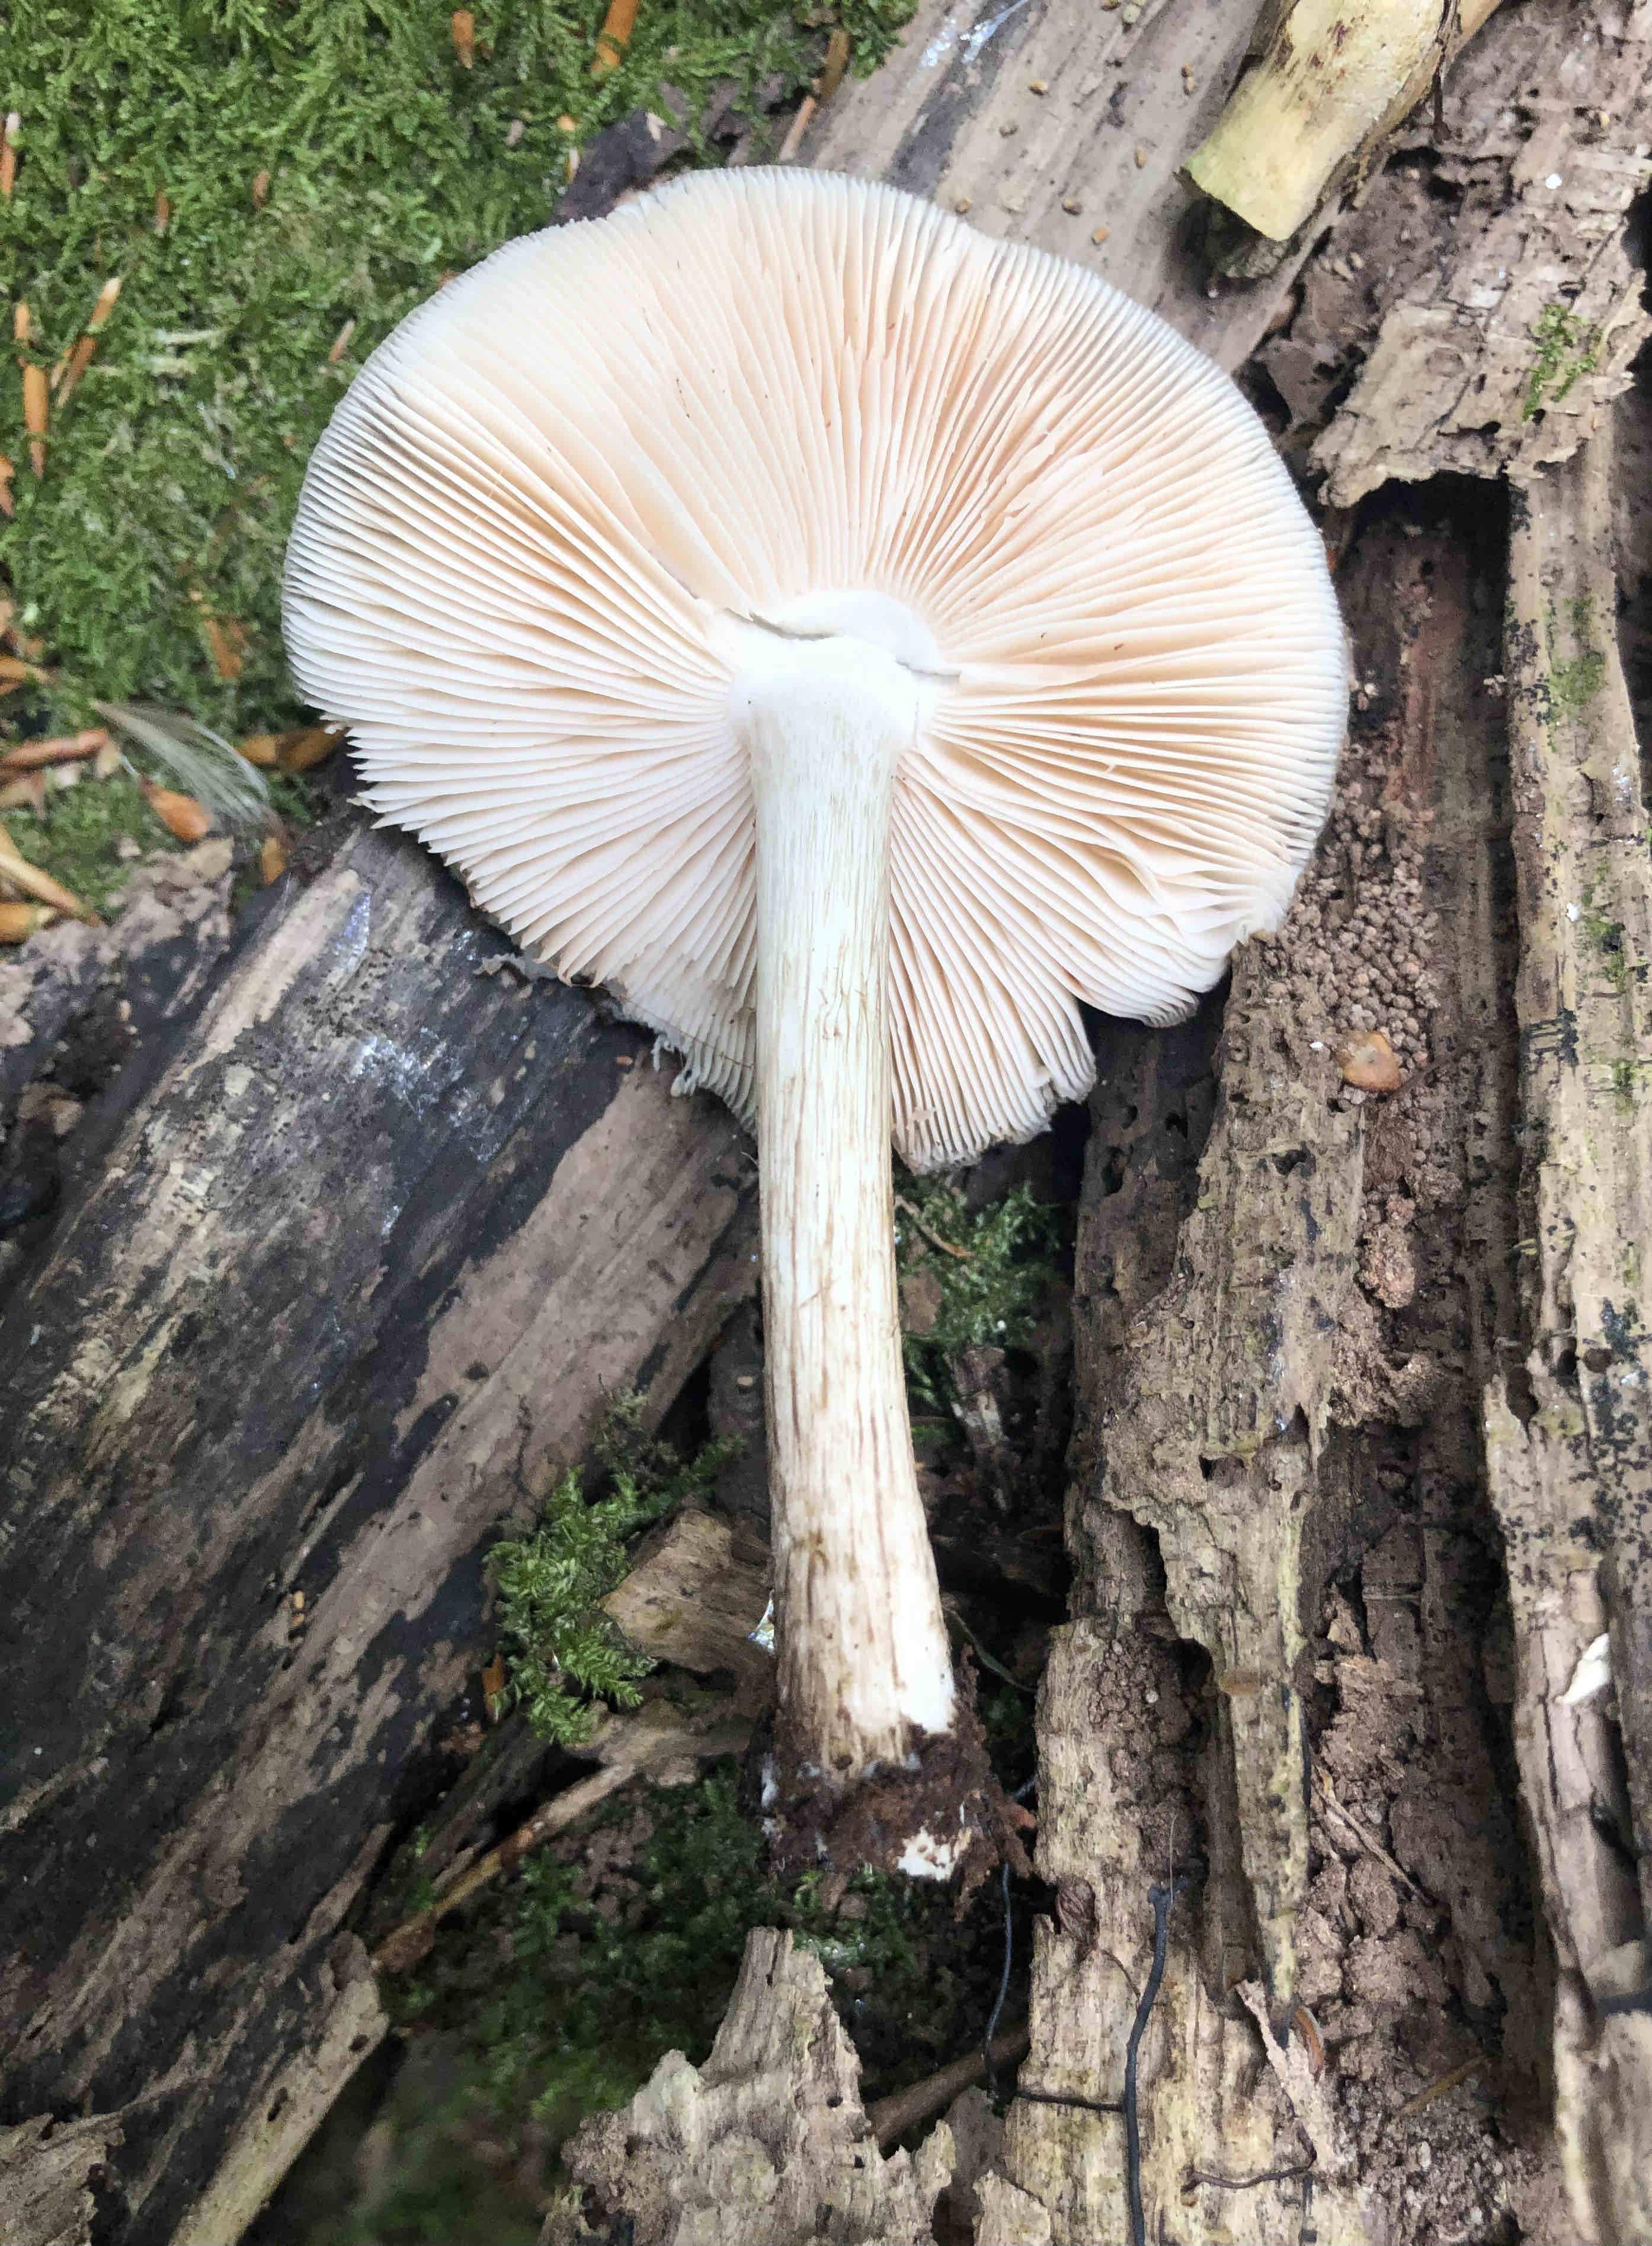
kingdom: Fungi
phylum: Basidiomycota
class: Agaricomycetes
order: Agaricales
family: Pluteaceae
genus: Pluteus
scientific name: Pluteus cervinus
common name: sodfarvet skærmhat
